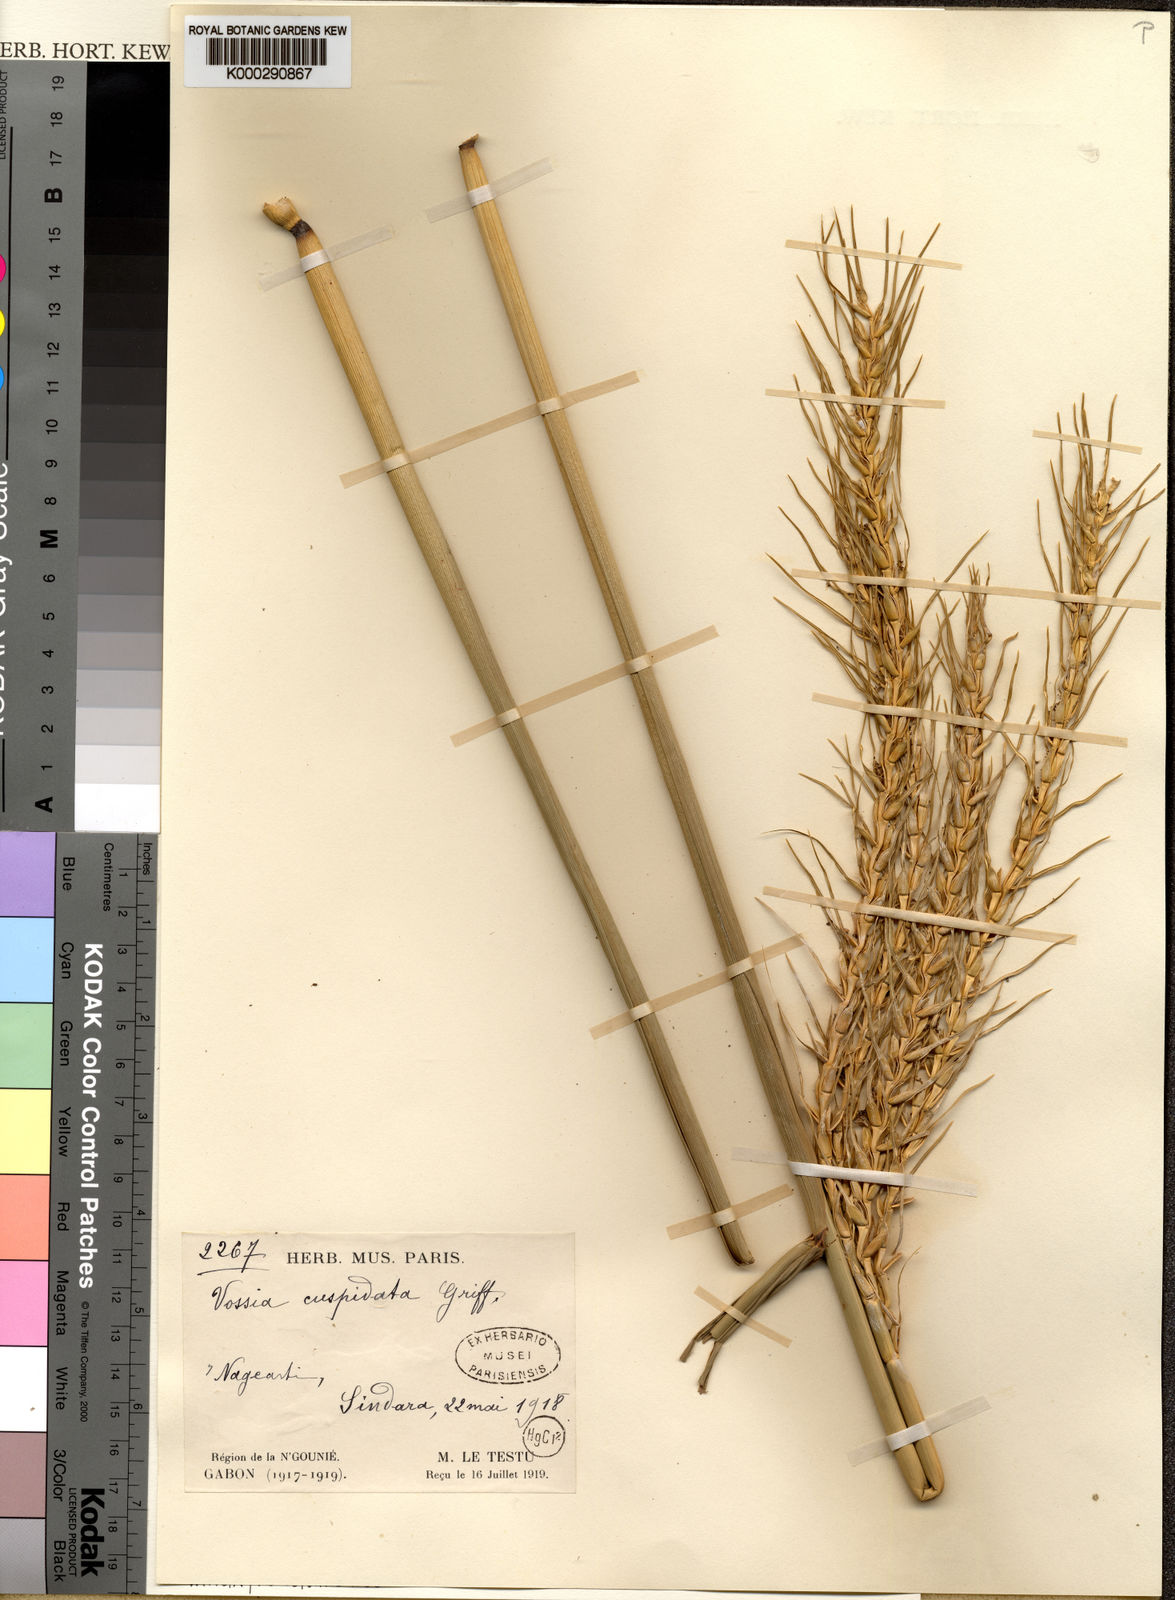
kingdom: Plantae
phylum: Tracheophyta
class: Liliopsida
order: Poales
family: Poaceae
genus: Vossia
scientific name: Vossia cuspidata
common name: Hippo grass
